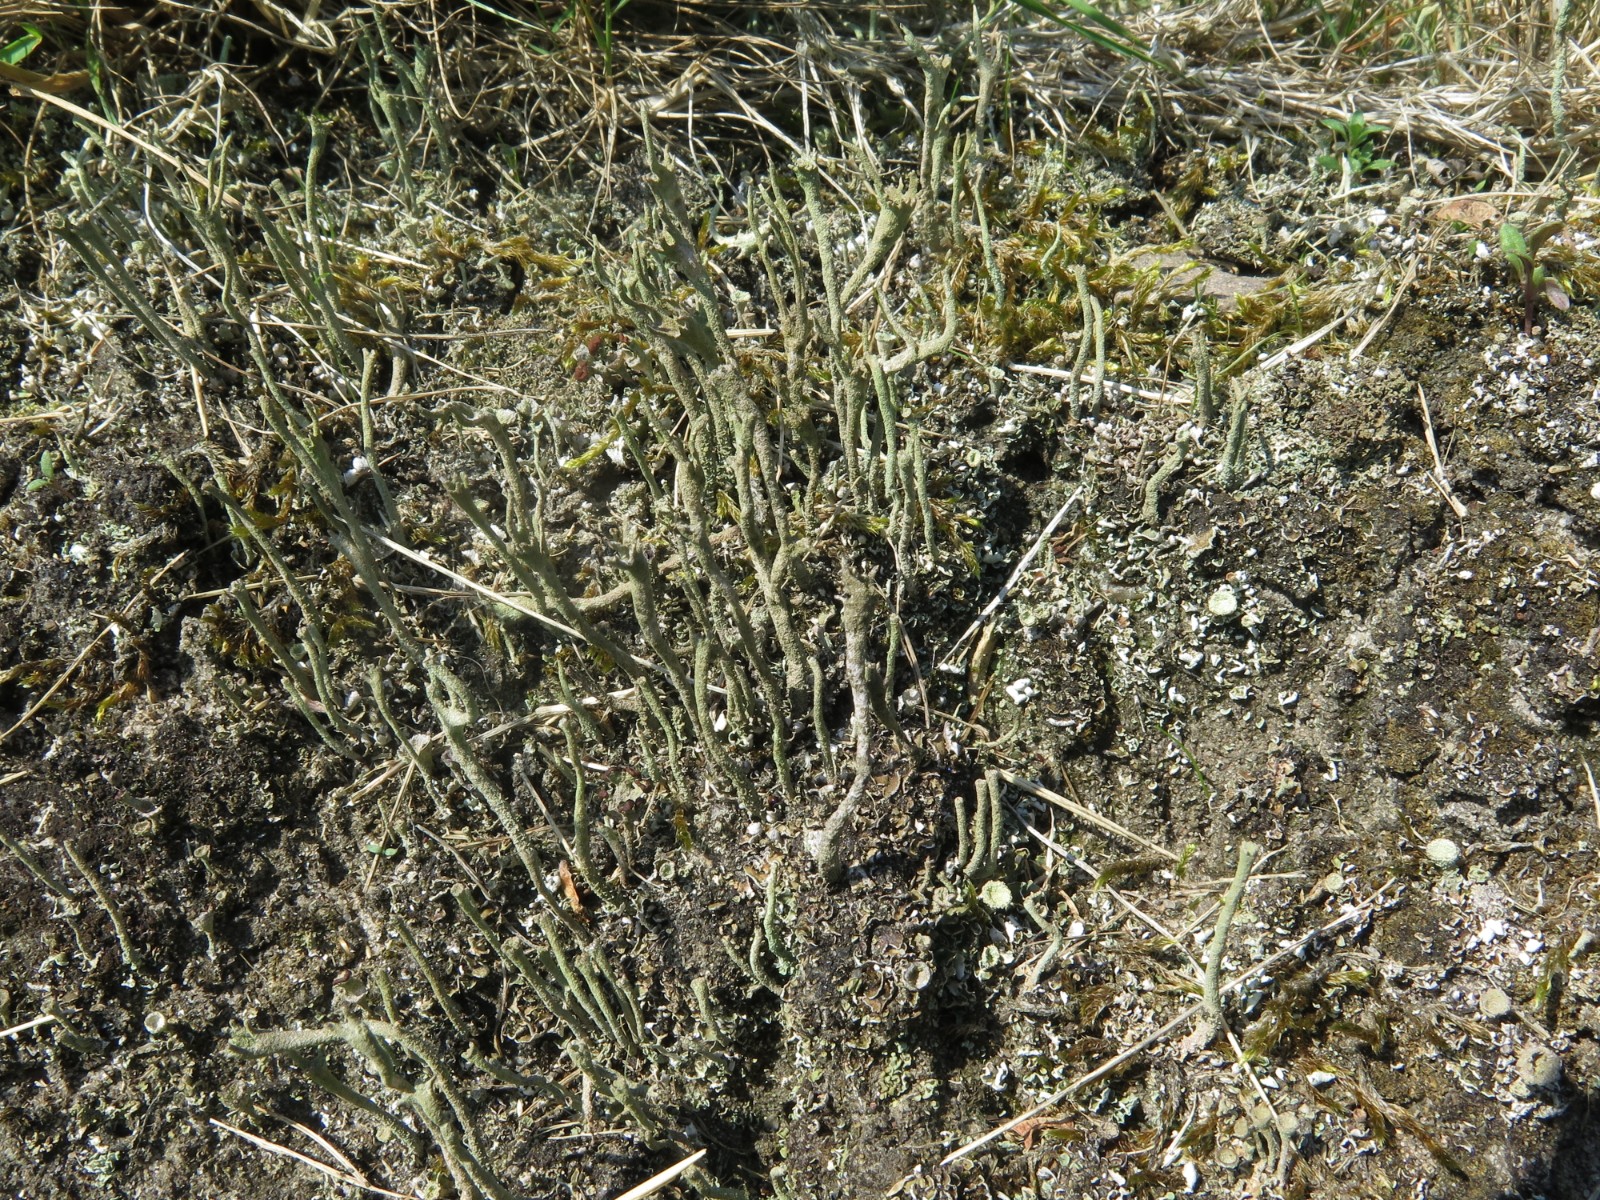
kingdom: Fungi
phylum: Ascomycota
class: Lecanoromycetes
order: Lecanorales
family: Cladoniaceae
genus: Cladonia
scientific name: Cladonia gracilis
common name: slank bægerlav
